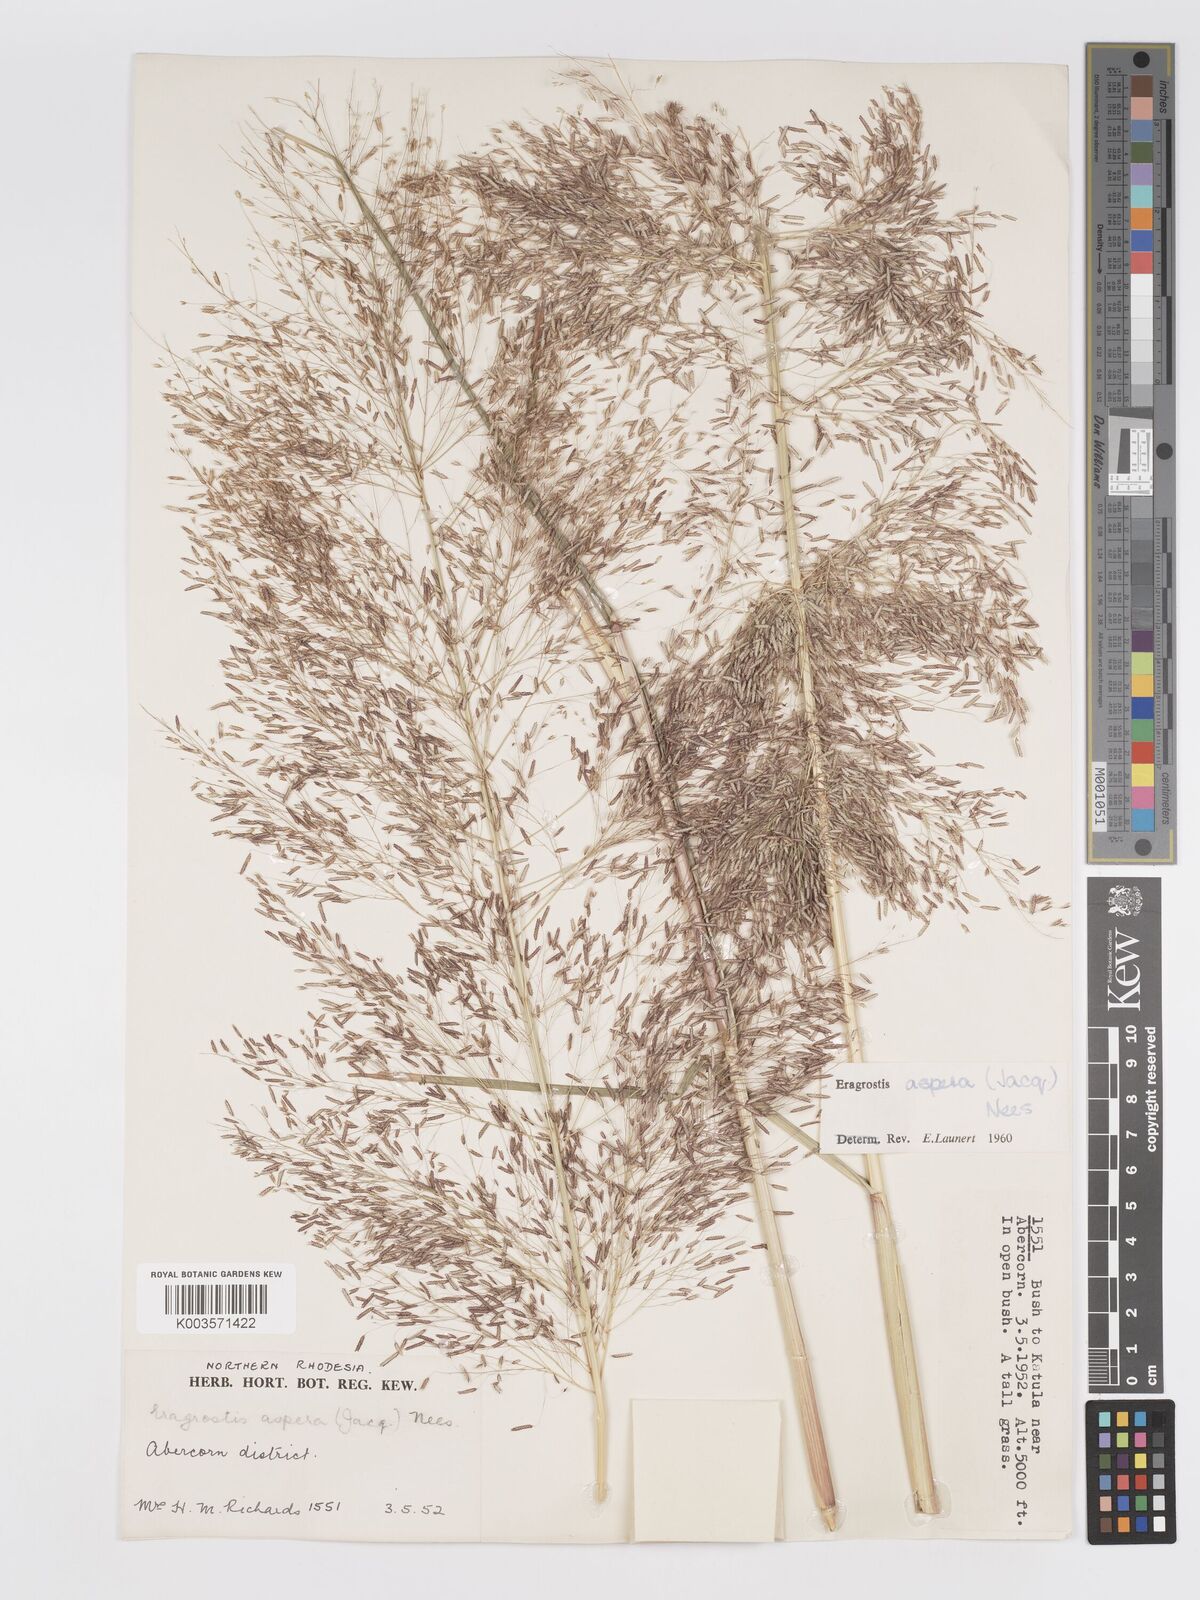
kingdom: Plantae
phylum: Tracheophyta
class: Liliopsida
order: Poales
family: Poaceae
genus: Eragrostis
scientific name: Eragrostis aspera
